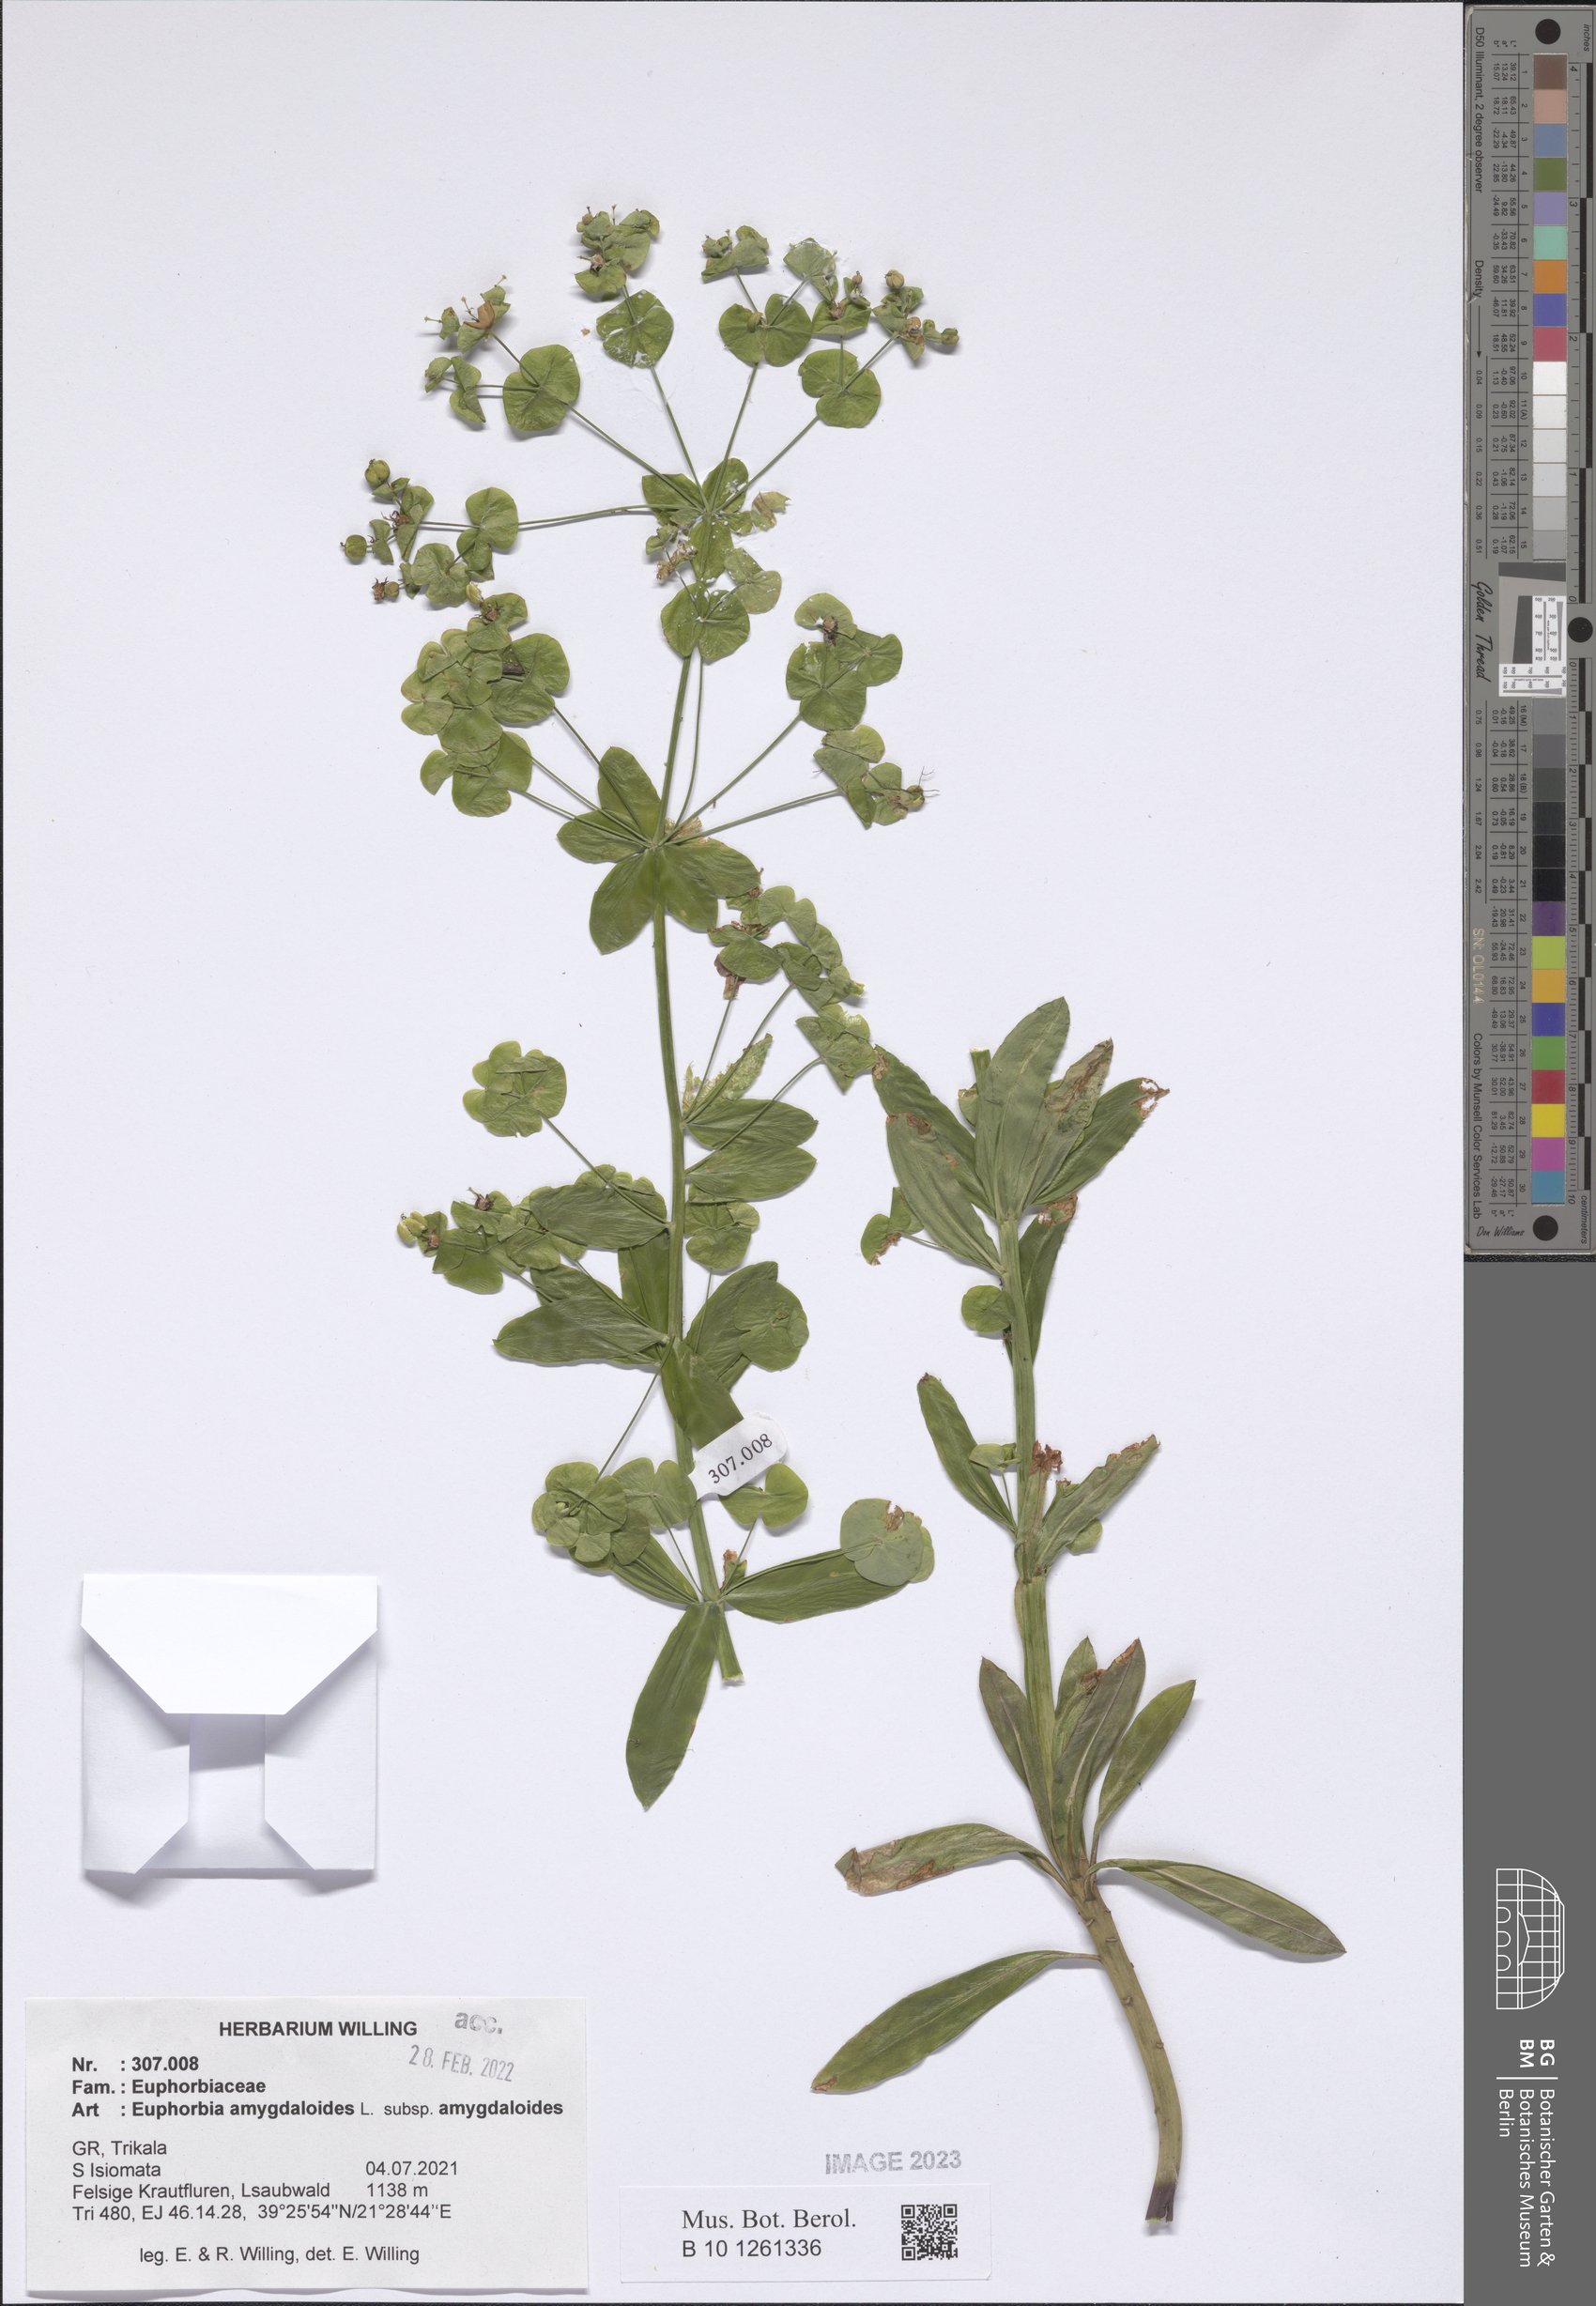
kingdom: Plantae
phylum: Tracheophyta
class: Magnoliopsida
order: Malpighiales
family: Euphorbiaceae
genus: Euphorbia
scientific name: Euphorbia amygdaloides
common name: Wood spurge
